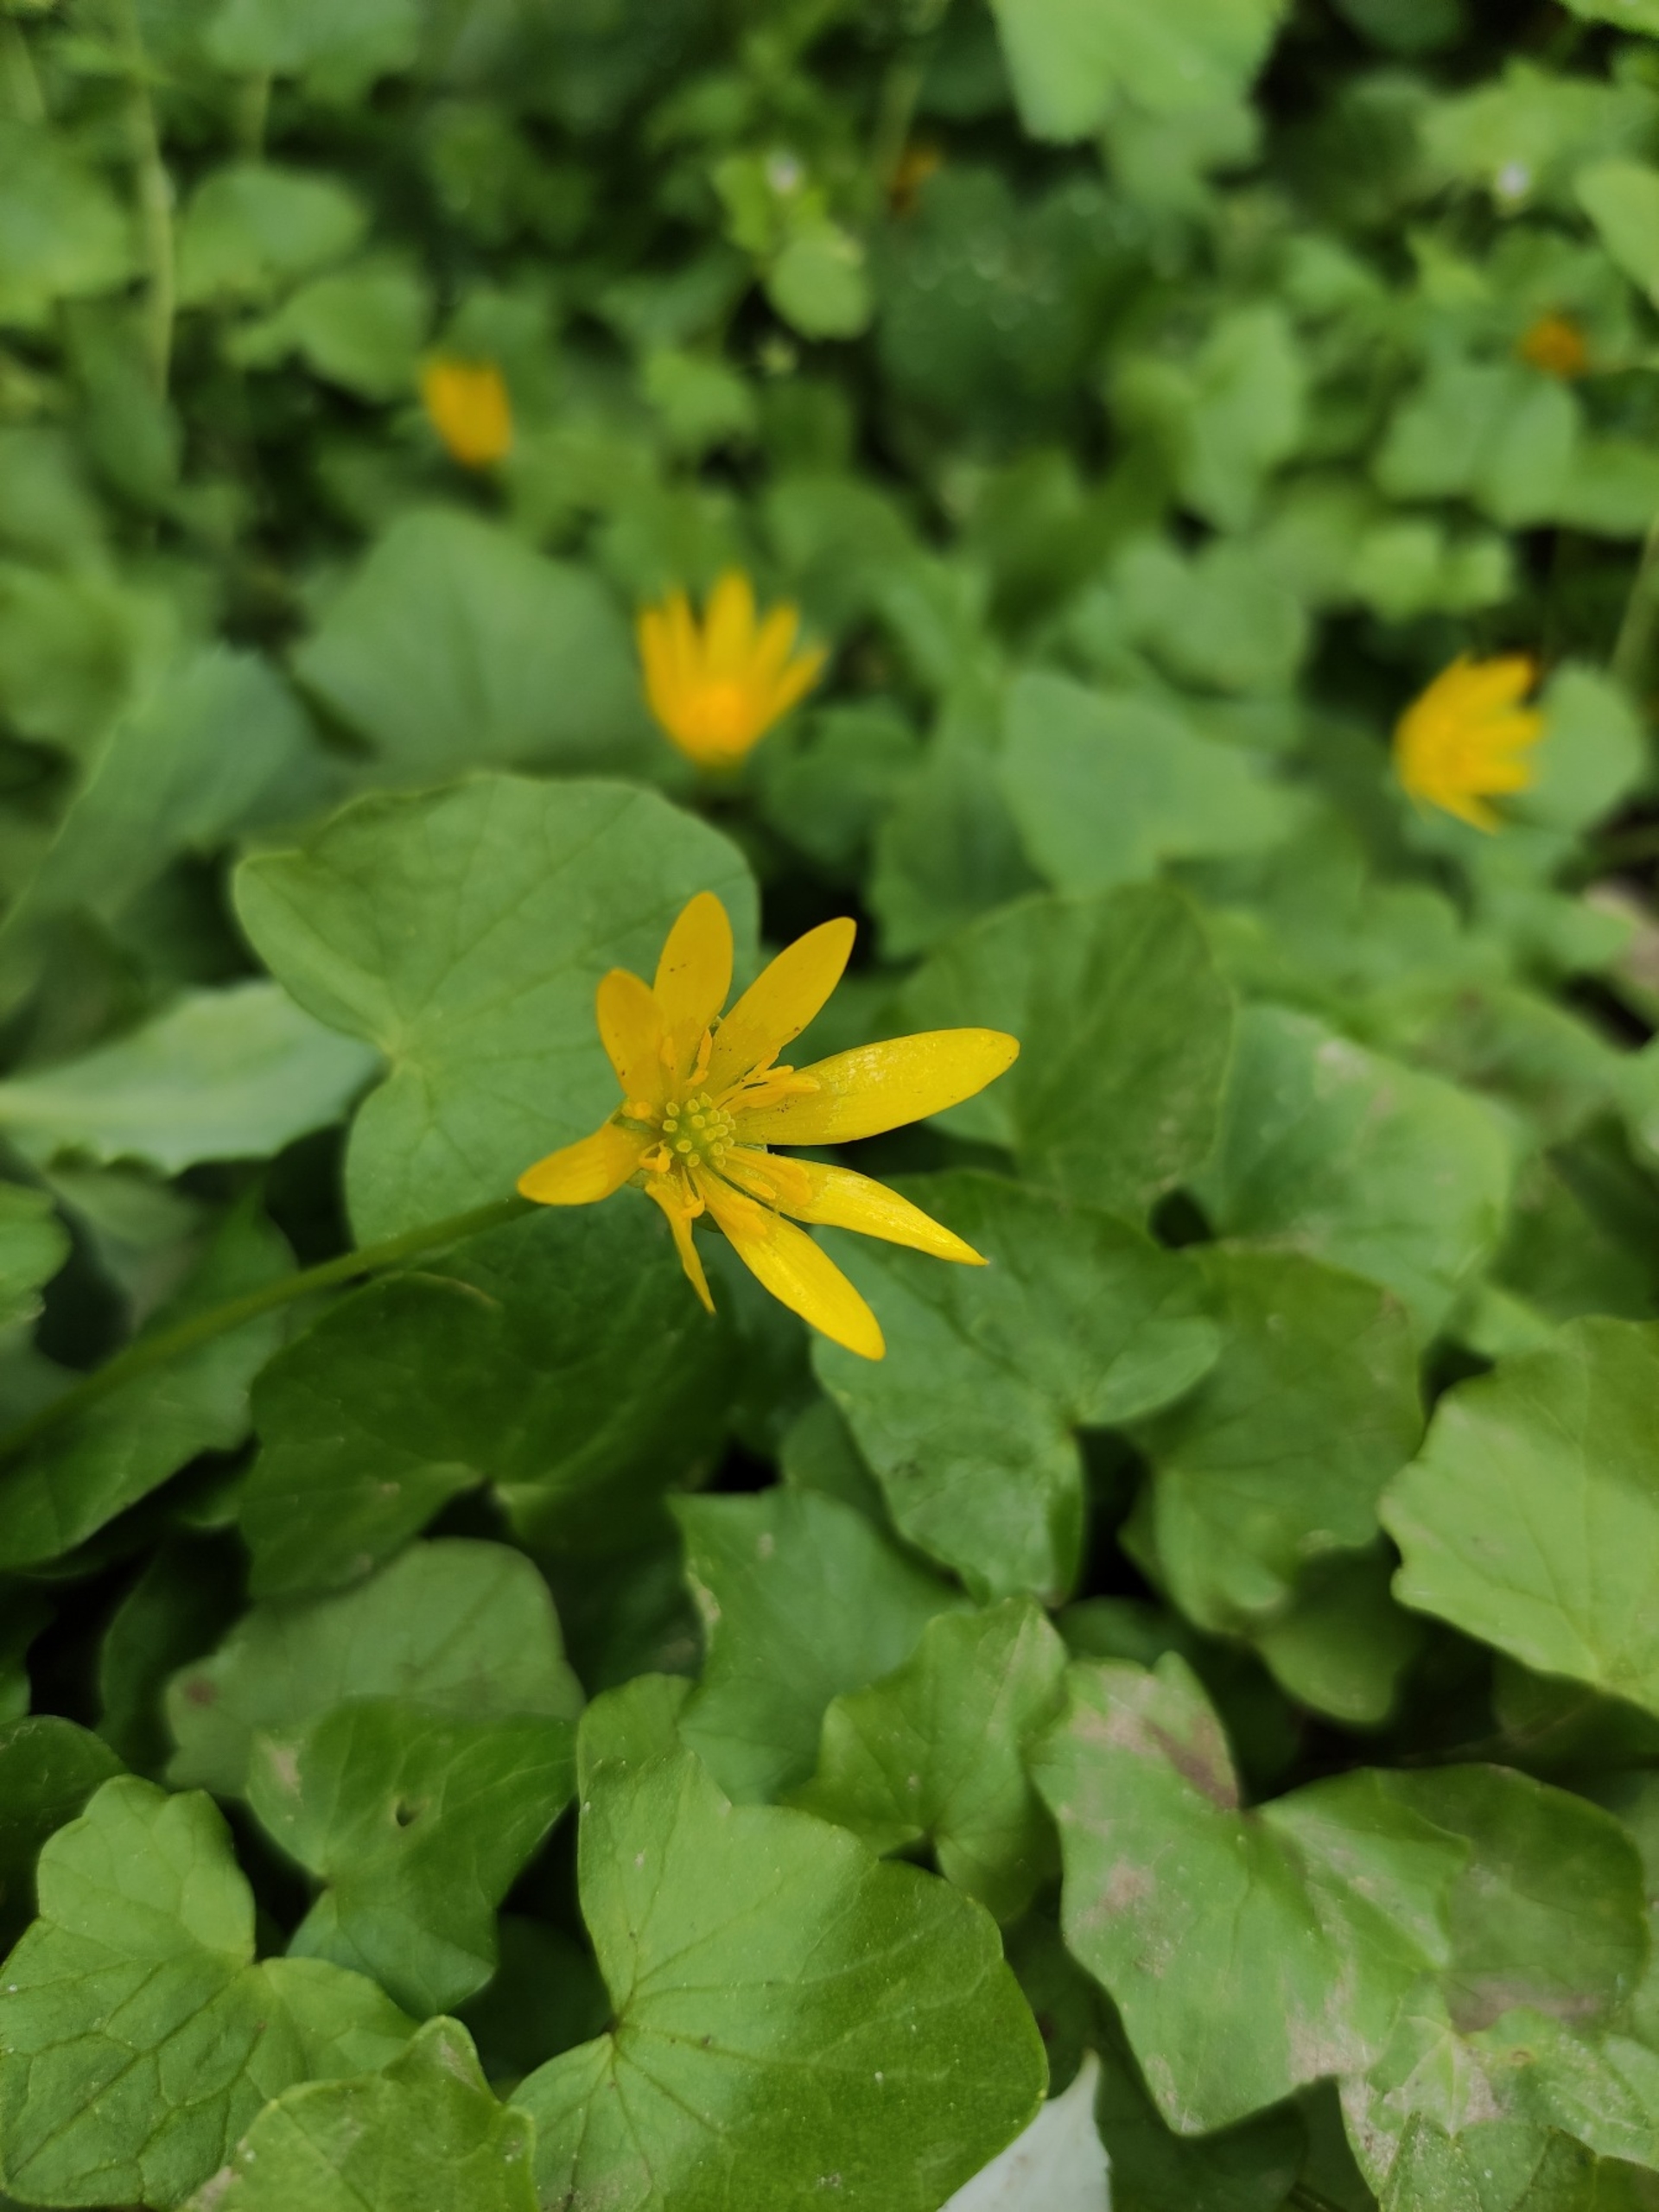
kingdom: Plantae
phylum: Tracheophyta
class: Magnoliopsida
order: Ranunculales
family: Ranunculaceae
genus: Ficaria
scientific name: Ficaria verna
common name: Vorterod
